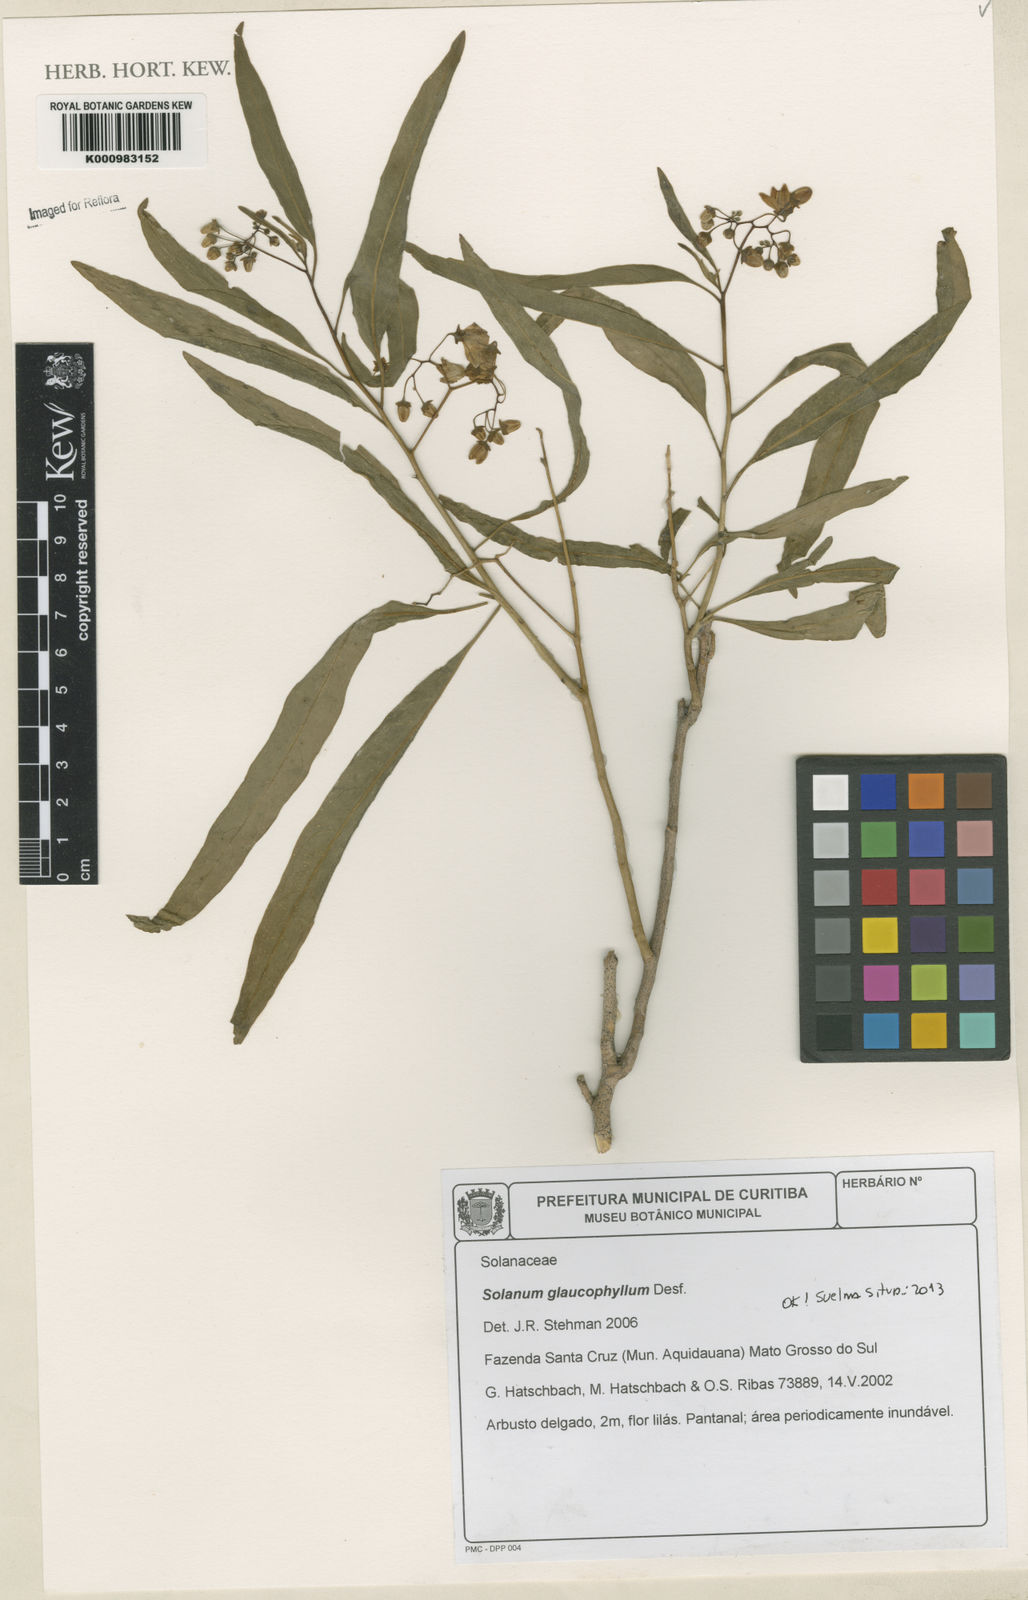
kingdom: Plantae
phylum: Tracheophyta
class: Magnoliopsida
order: Solanales
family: Solanaceae
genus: Solanum
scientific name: Solanum glaucophyllum
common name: Waxyleaf nightshade
